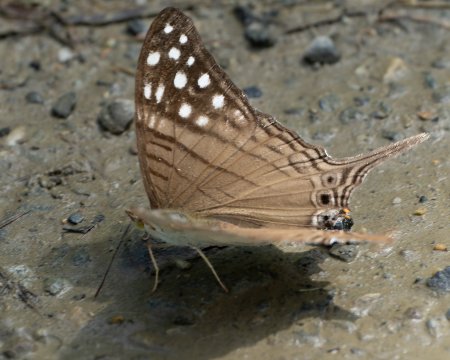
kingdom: Animalia
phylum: Arthropoda
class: Insecta
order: Lepidoptera
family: Nymphalidae
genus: Marpesia
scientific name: Marpesia merops
